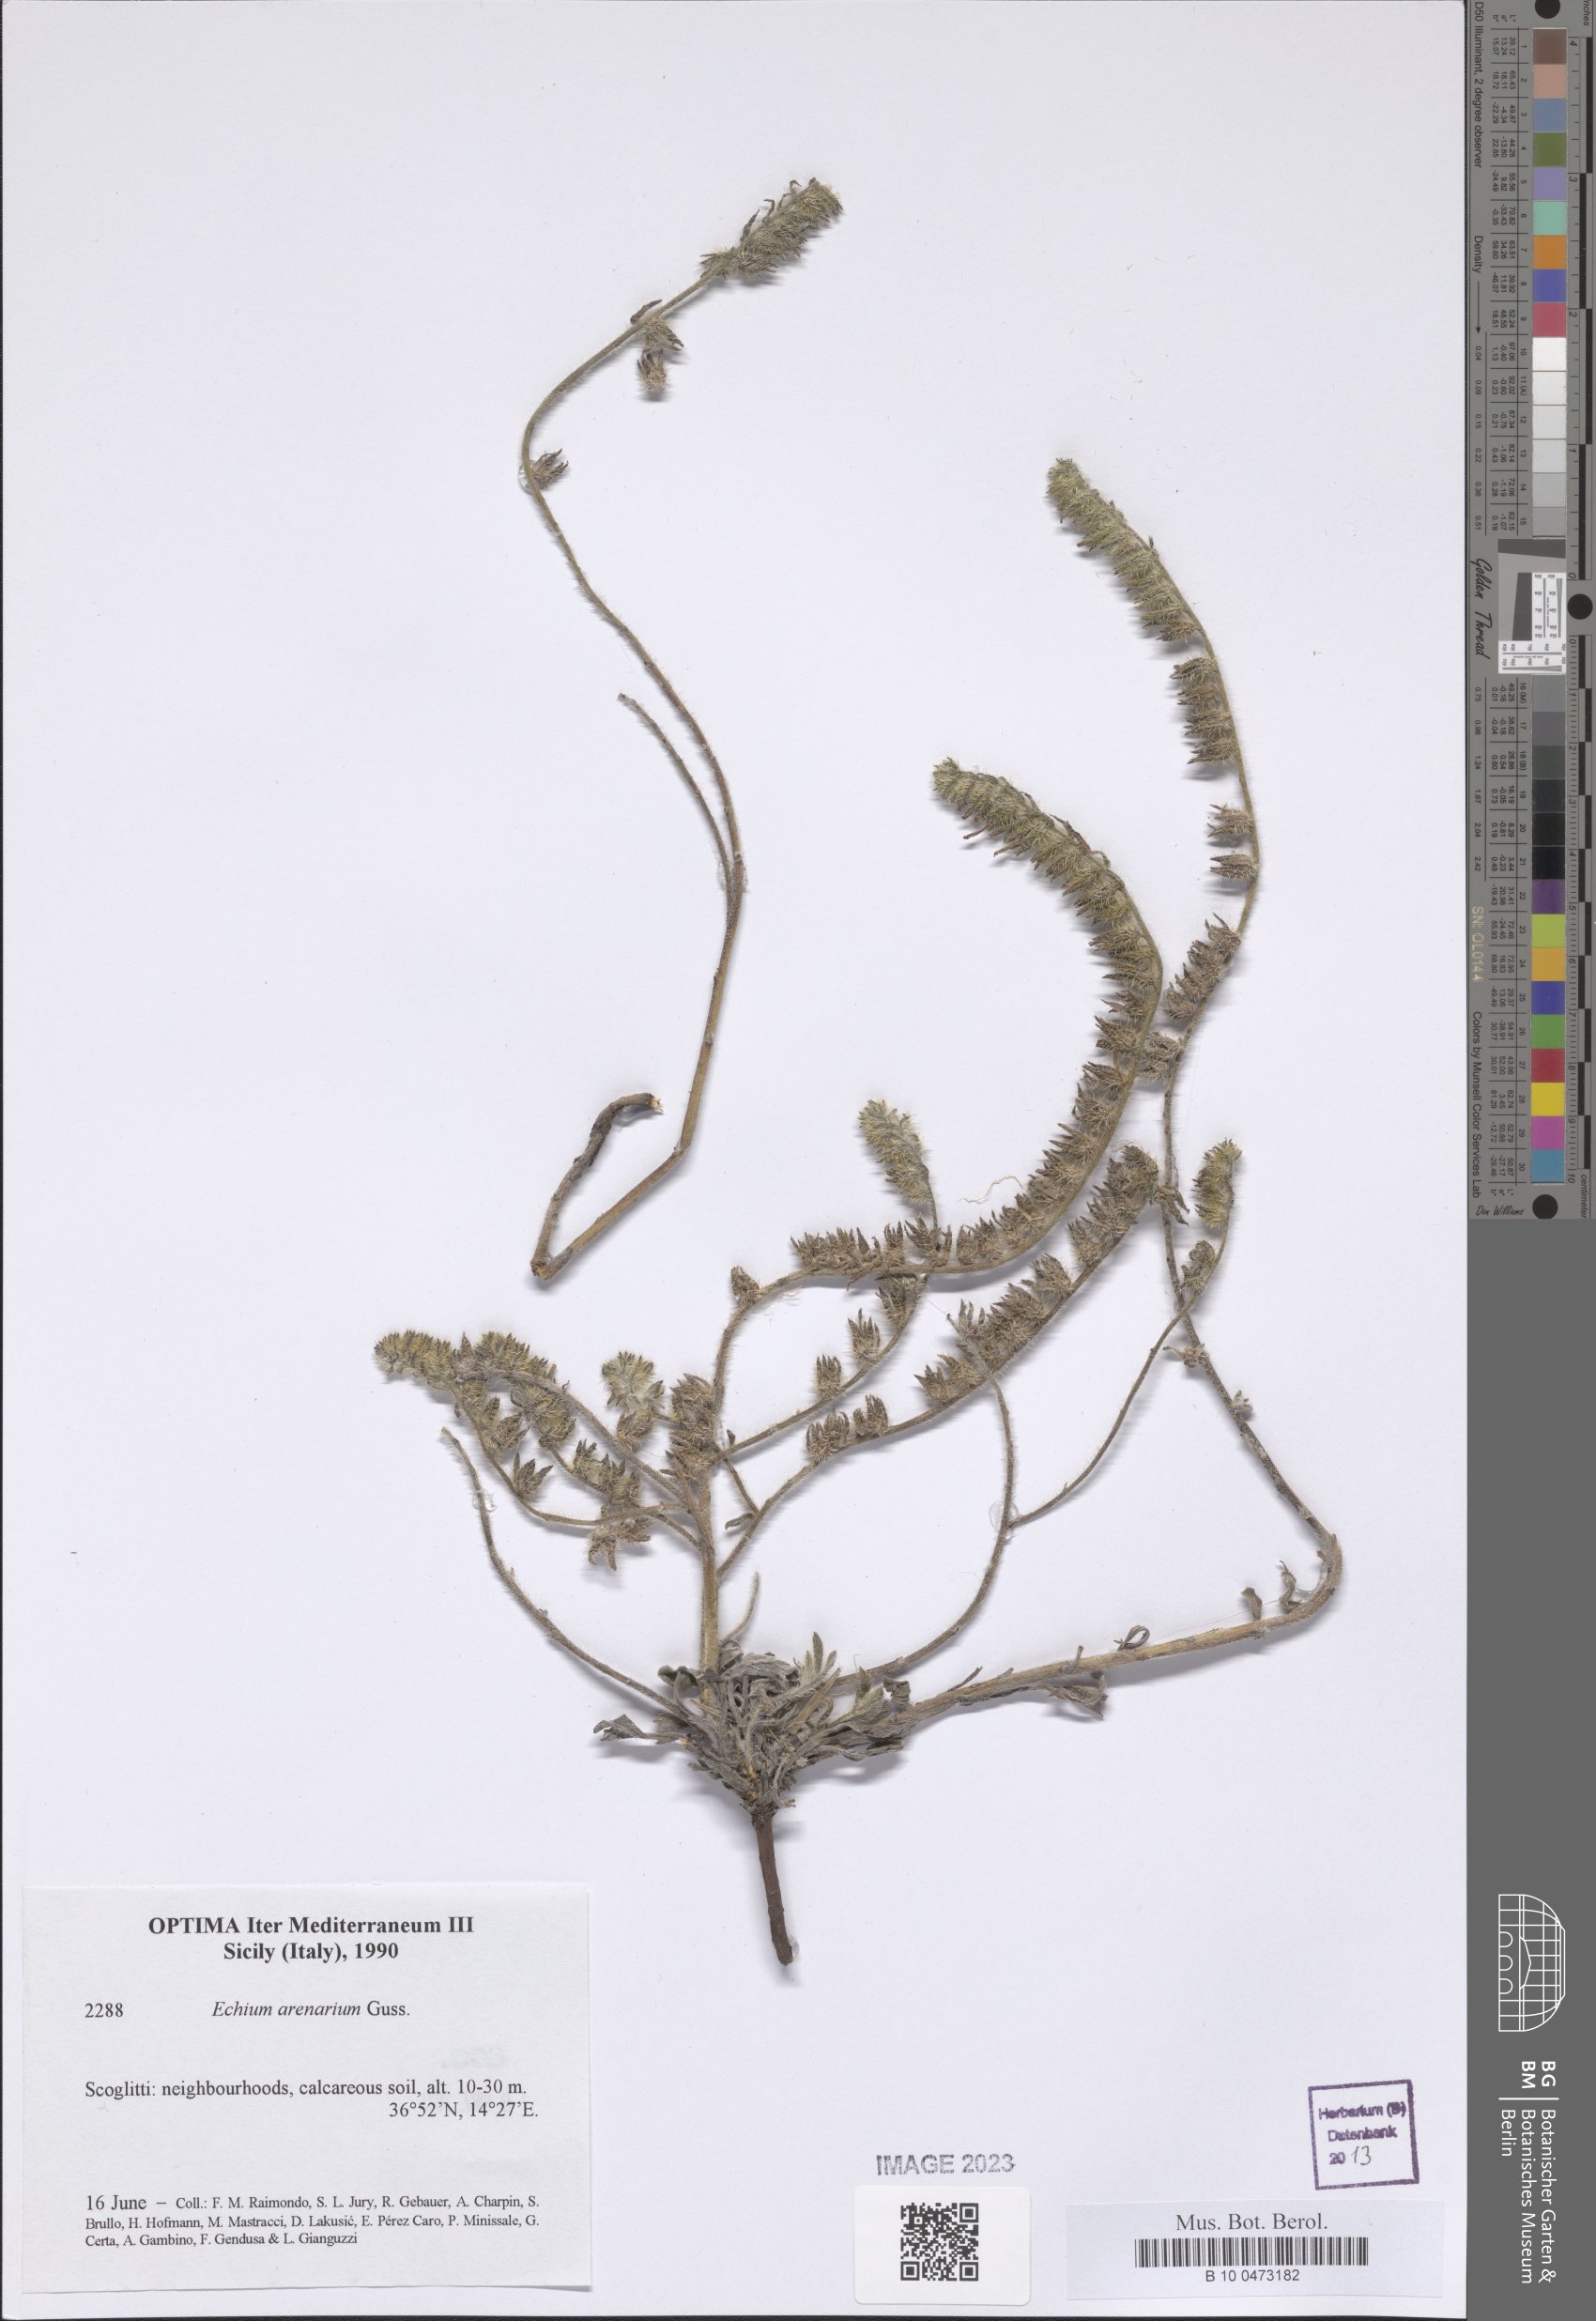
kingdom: Plantae
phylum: Tracheophyta
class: Magnoliopsida
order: Boraginales
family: Boraginaceae
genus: Echium
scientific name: Echium arenarium
